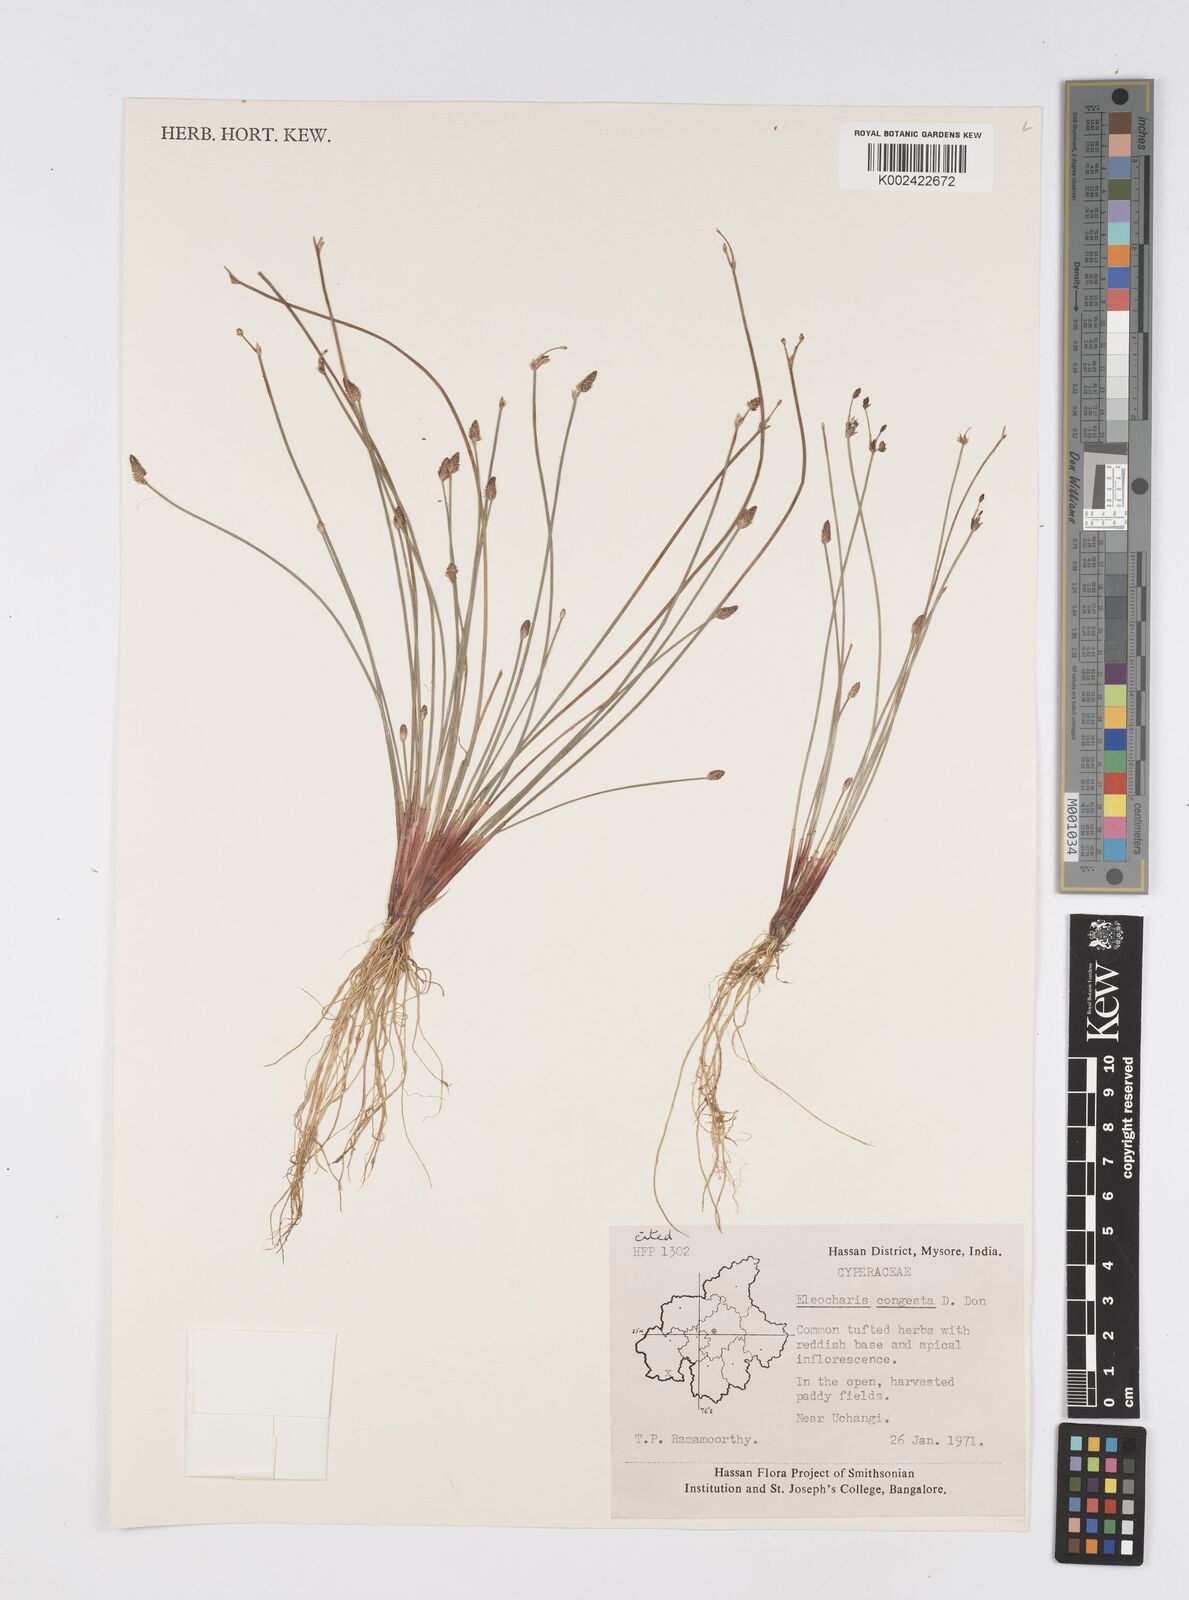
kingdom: Plantae
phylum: Tracheophyta
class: Liliopsida
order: Poales
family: Cyperaceae
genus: Eleocharis
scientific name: Eleocharis congesta
